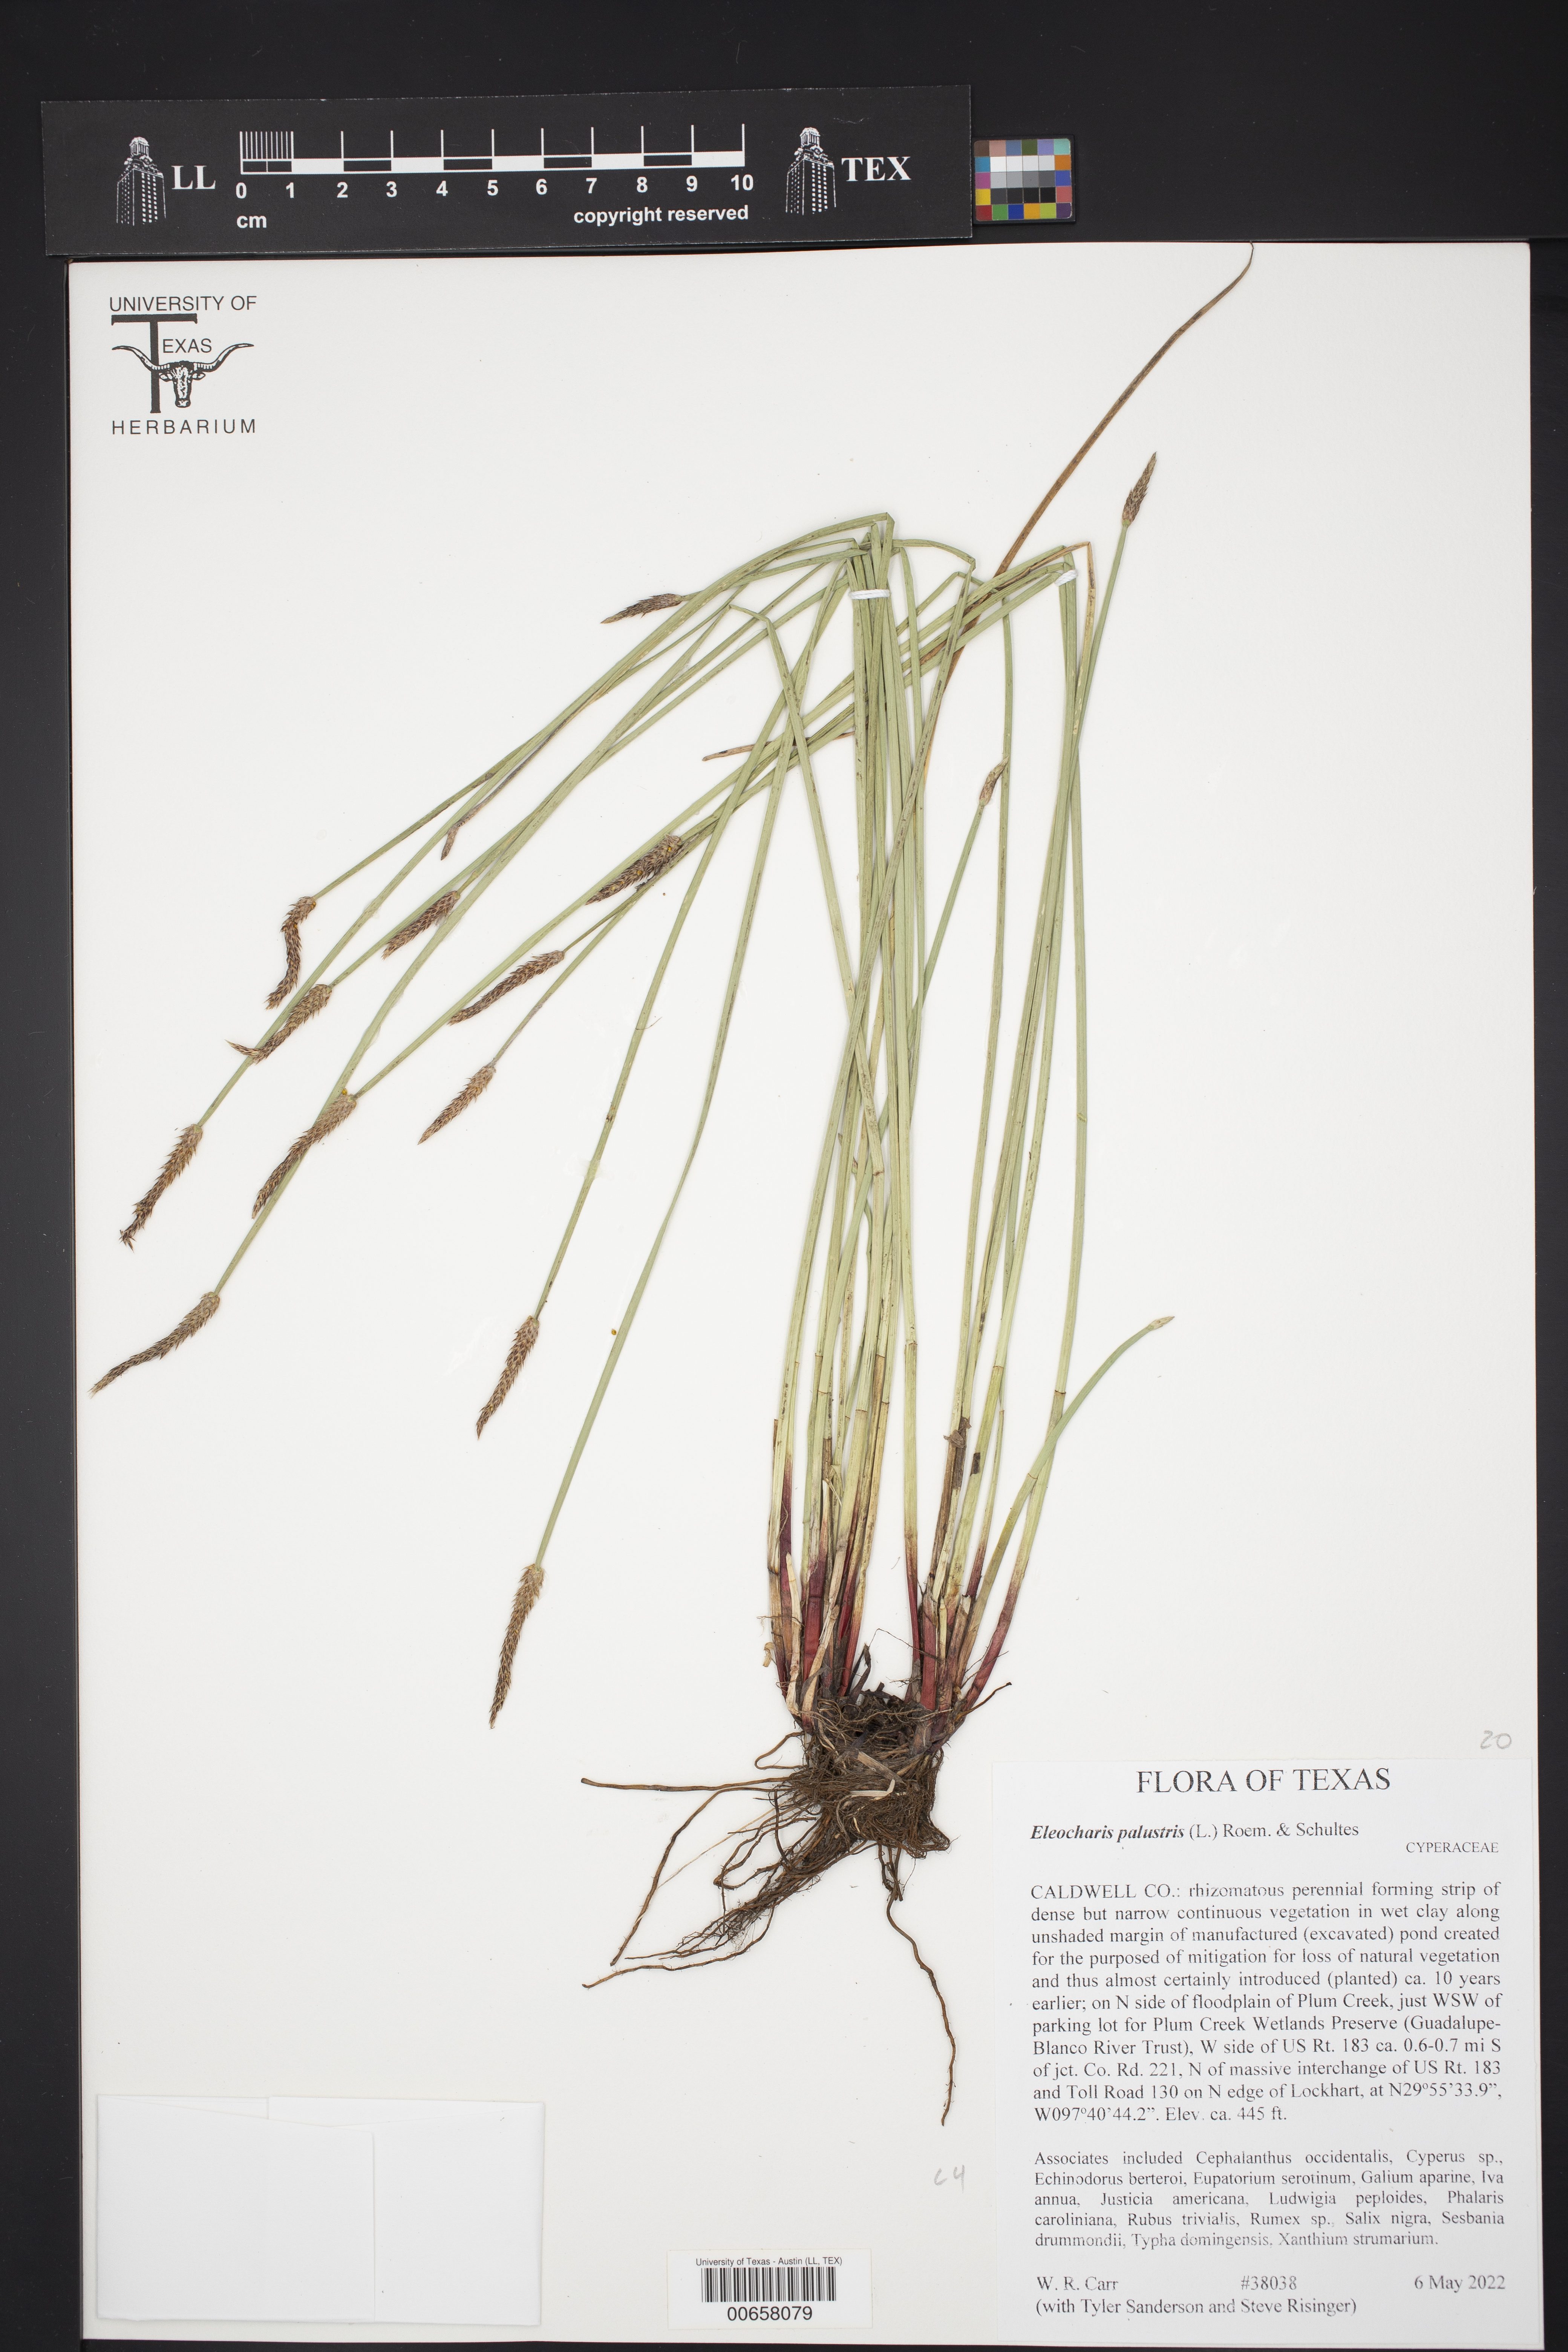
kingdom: Plantae
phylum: Tracheophyta
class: Liliopsida
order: Poales
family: Cyperaceae
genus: Eleocharis
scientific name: Eleocharis palustris
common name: Common spike-rush
